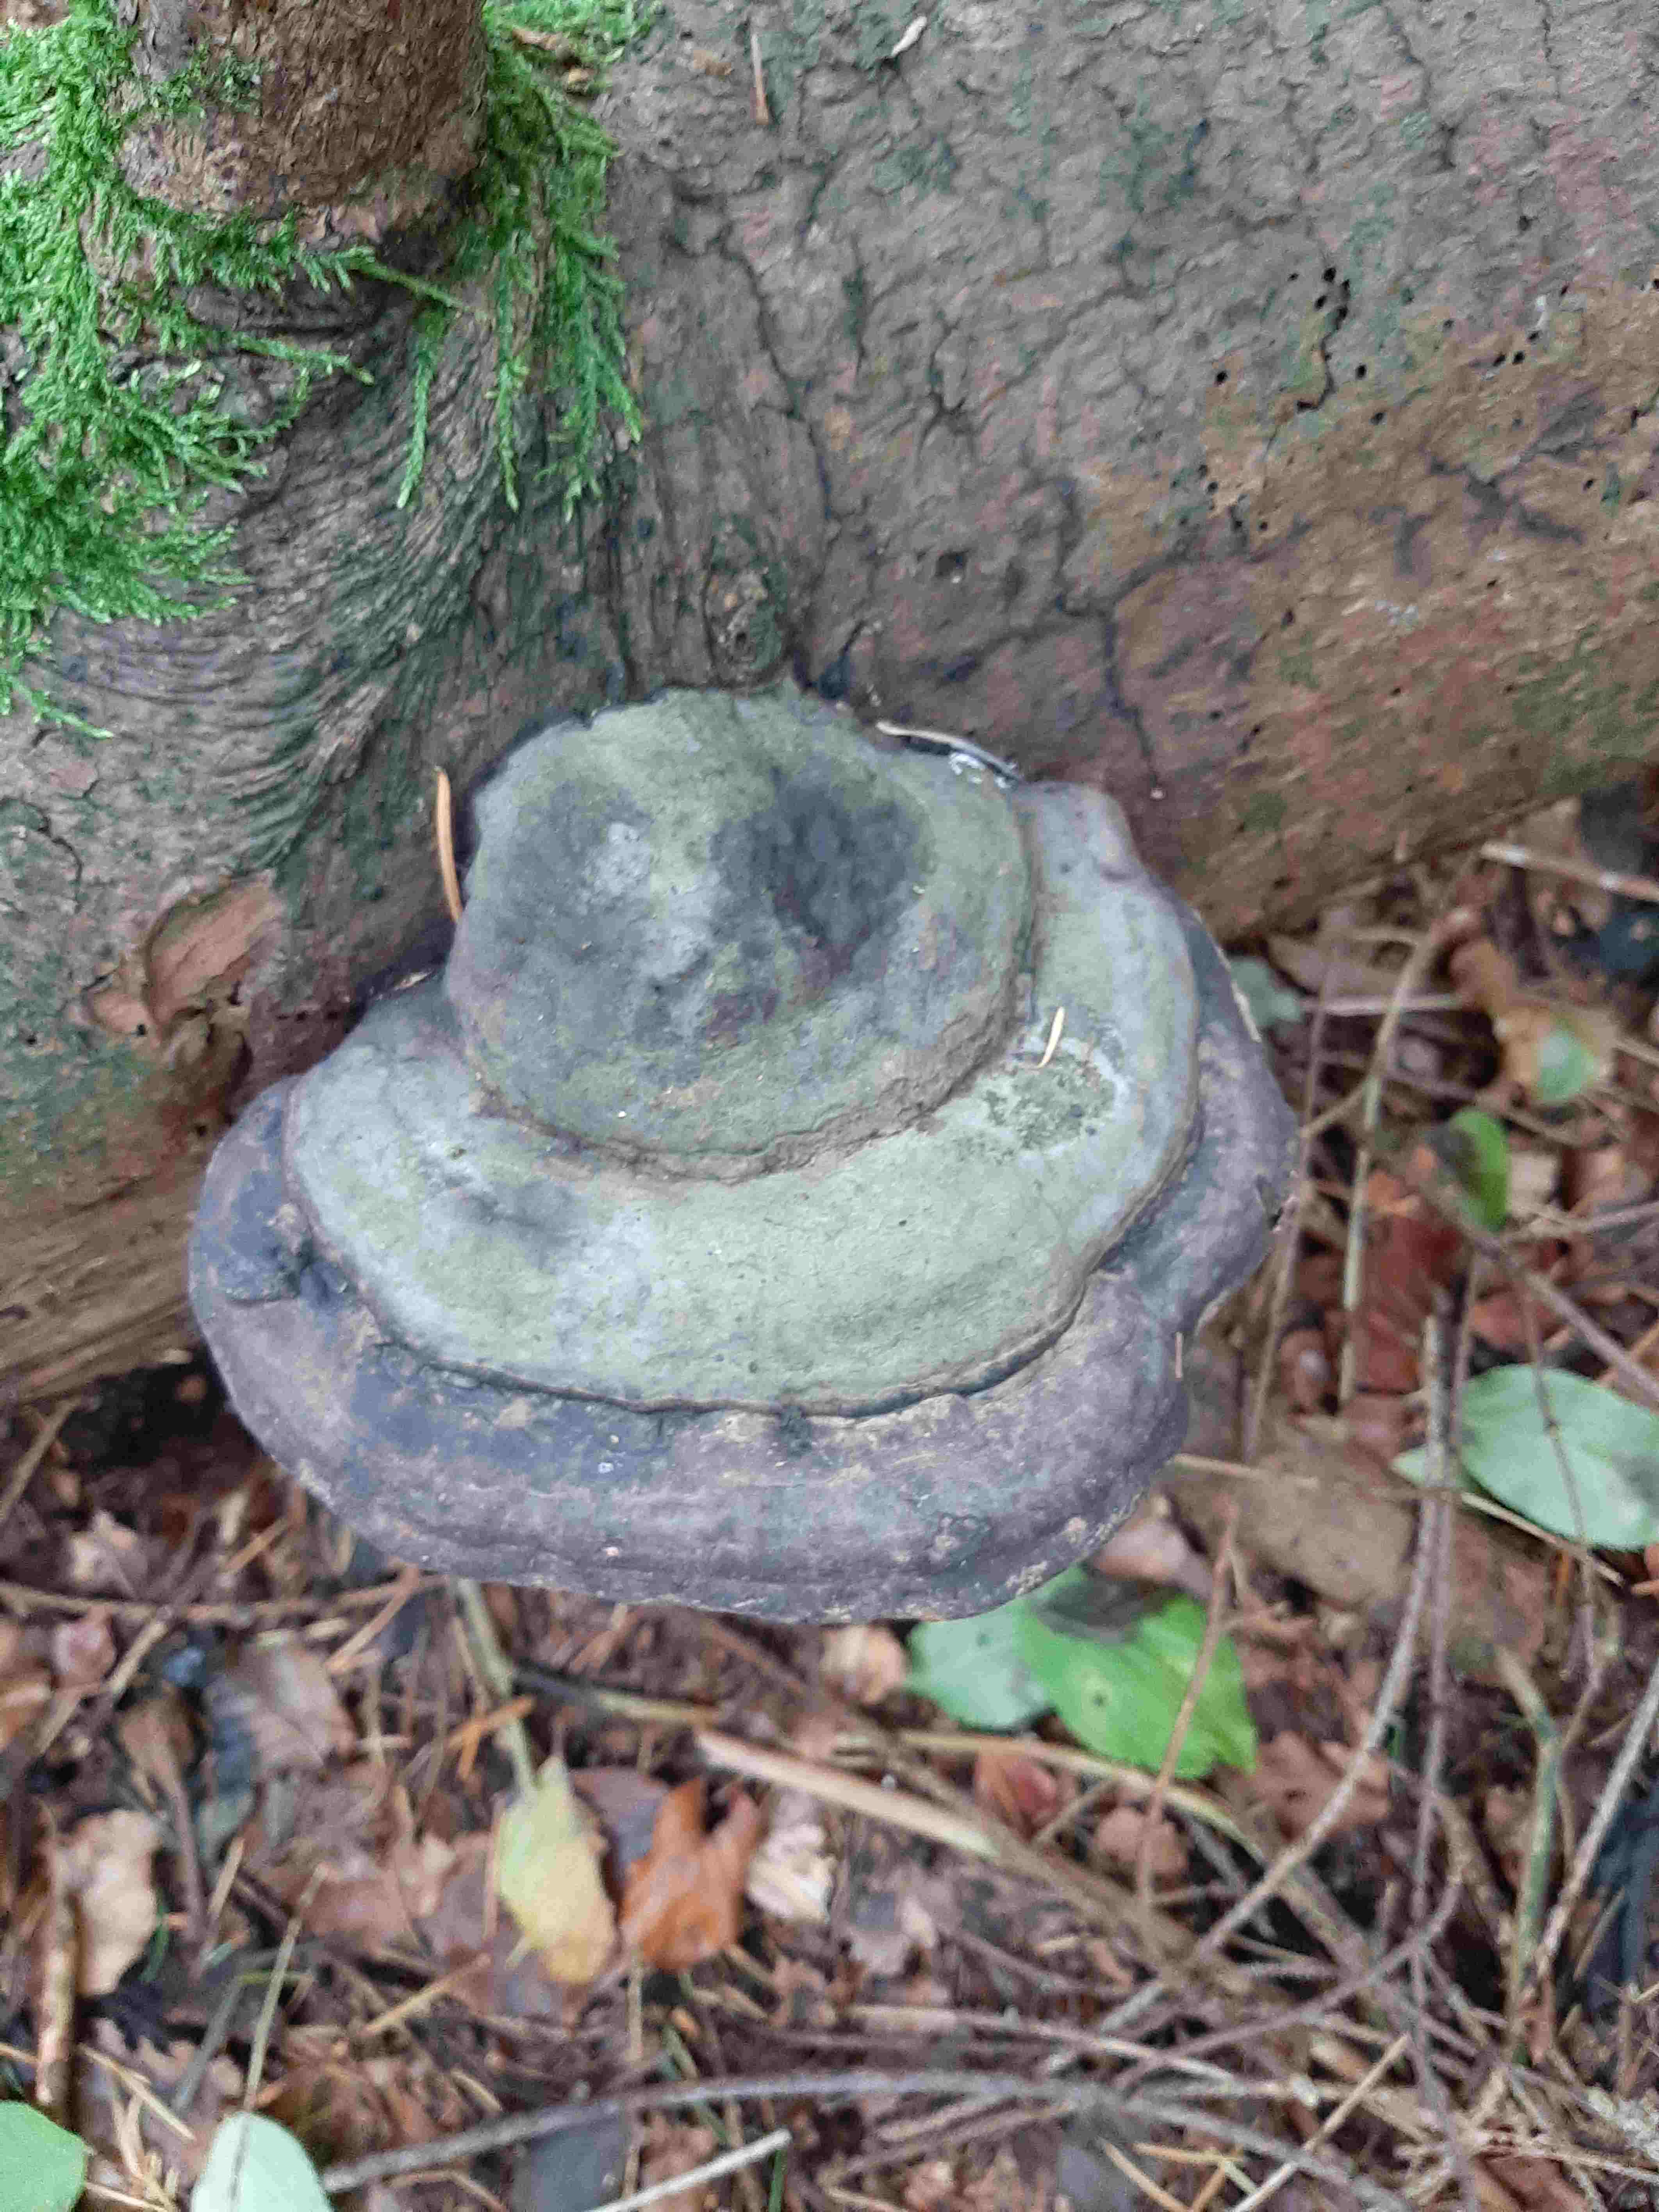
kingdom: Fungi
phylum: Basidiomycota
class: Agaricomycetes
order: Polyporales
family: Fomitopsidaceae
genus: Fomitopsis
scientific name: Fomitopsis pinicola
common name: randbæltet hovporesvamp
